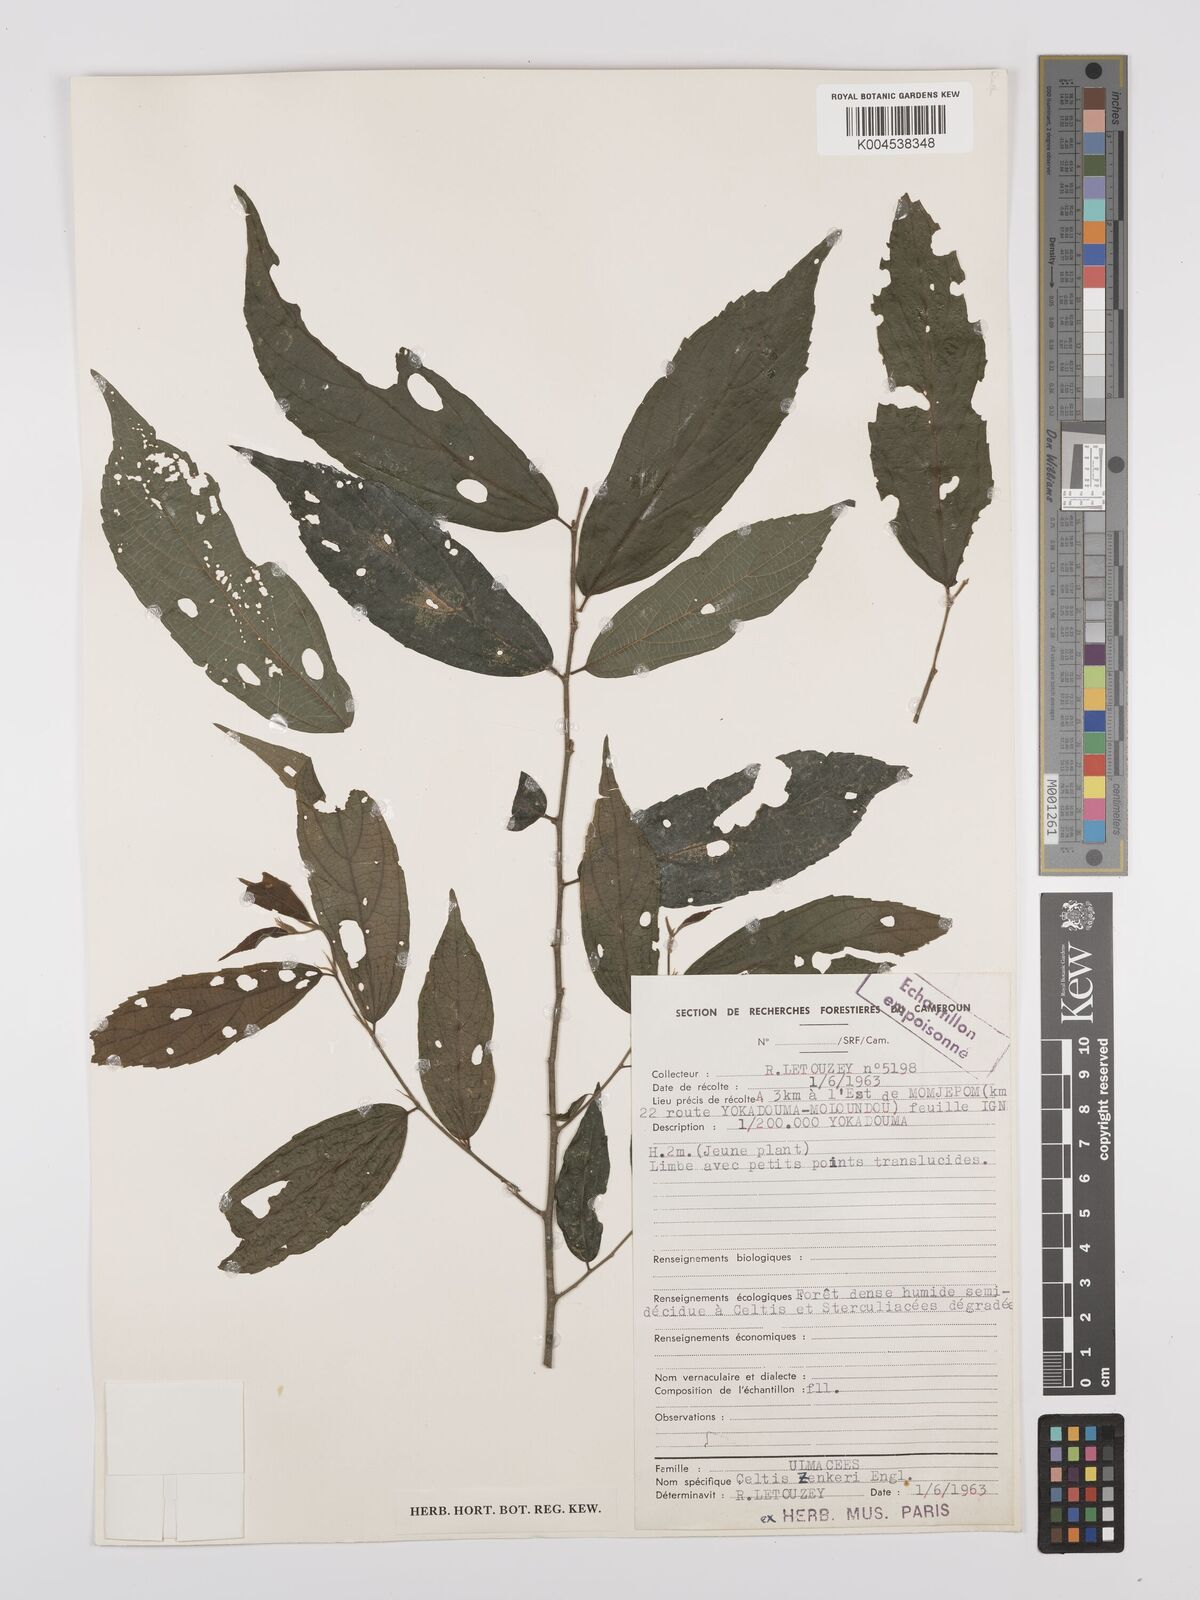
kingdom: Plantae
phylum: Tracheophyta
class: Magnoliopsida
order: Rosales
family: Cannabaceae
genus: Celtis
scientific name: Celtis zenkeri
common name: African celtis
